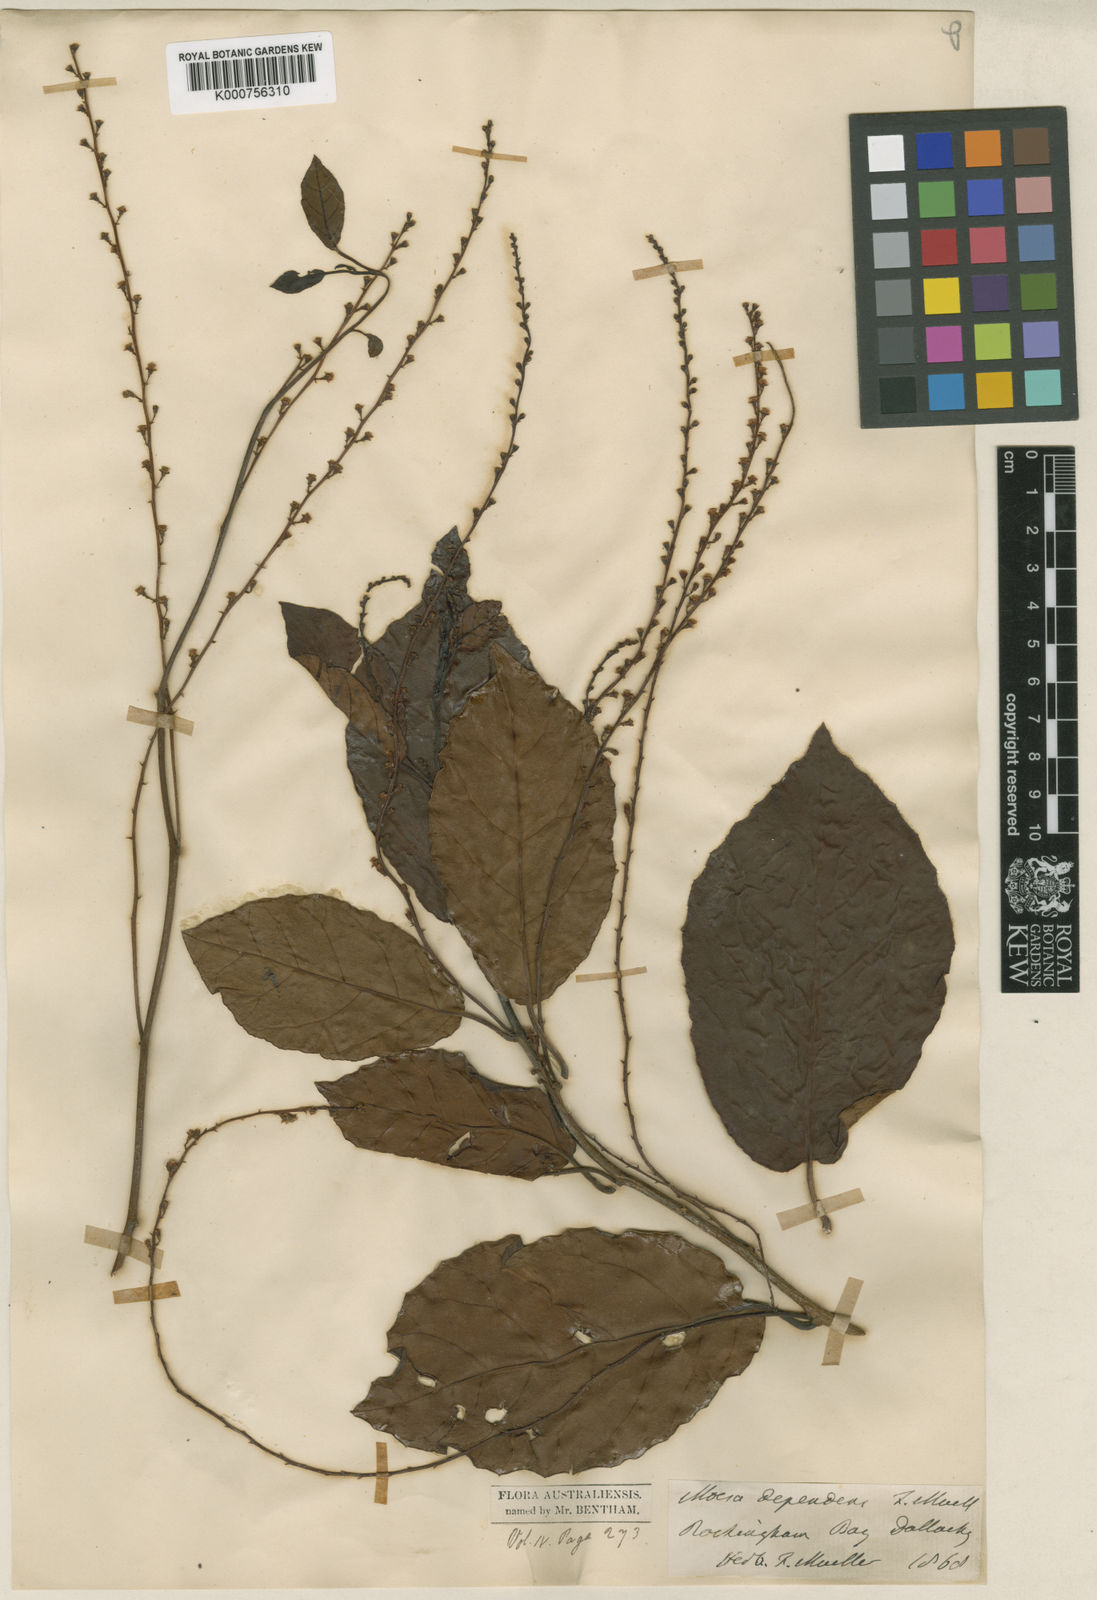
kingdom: Plantae
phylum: Tracheophyta
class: Magnoliopsida
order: Ericales
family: Primulaceae
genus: Maesa
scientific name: Maesa dependens
